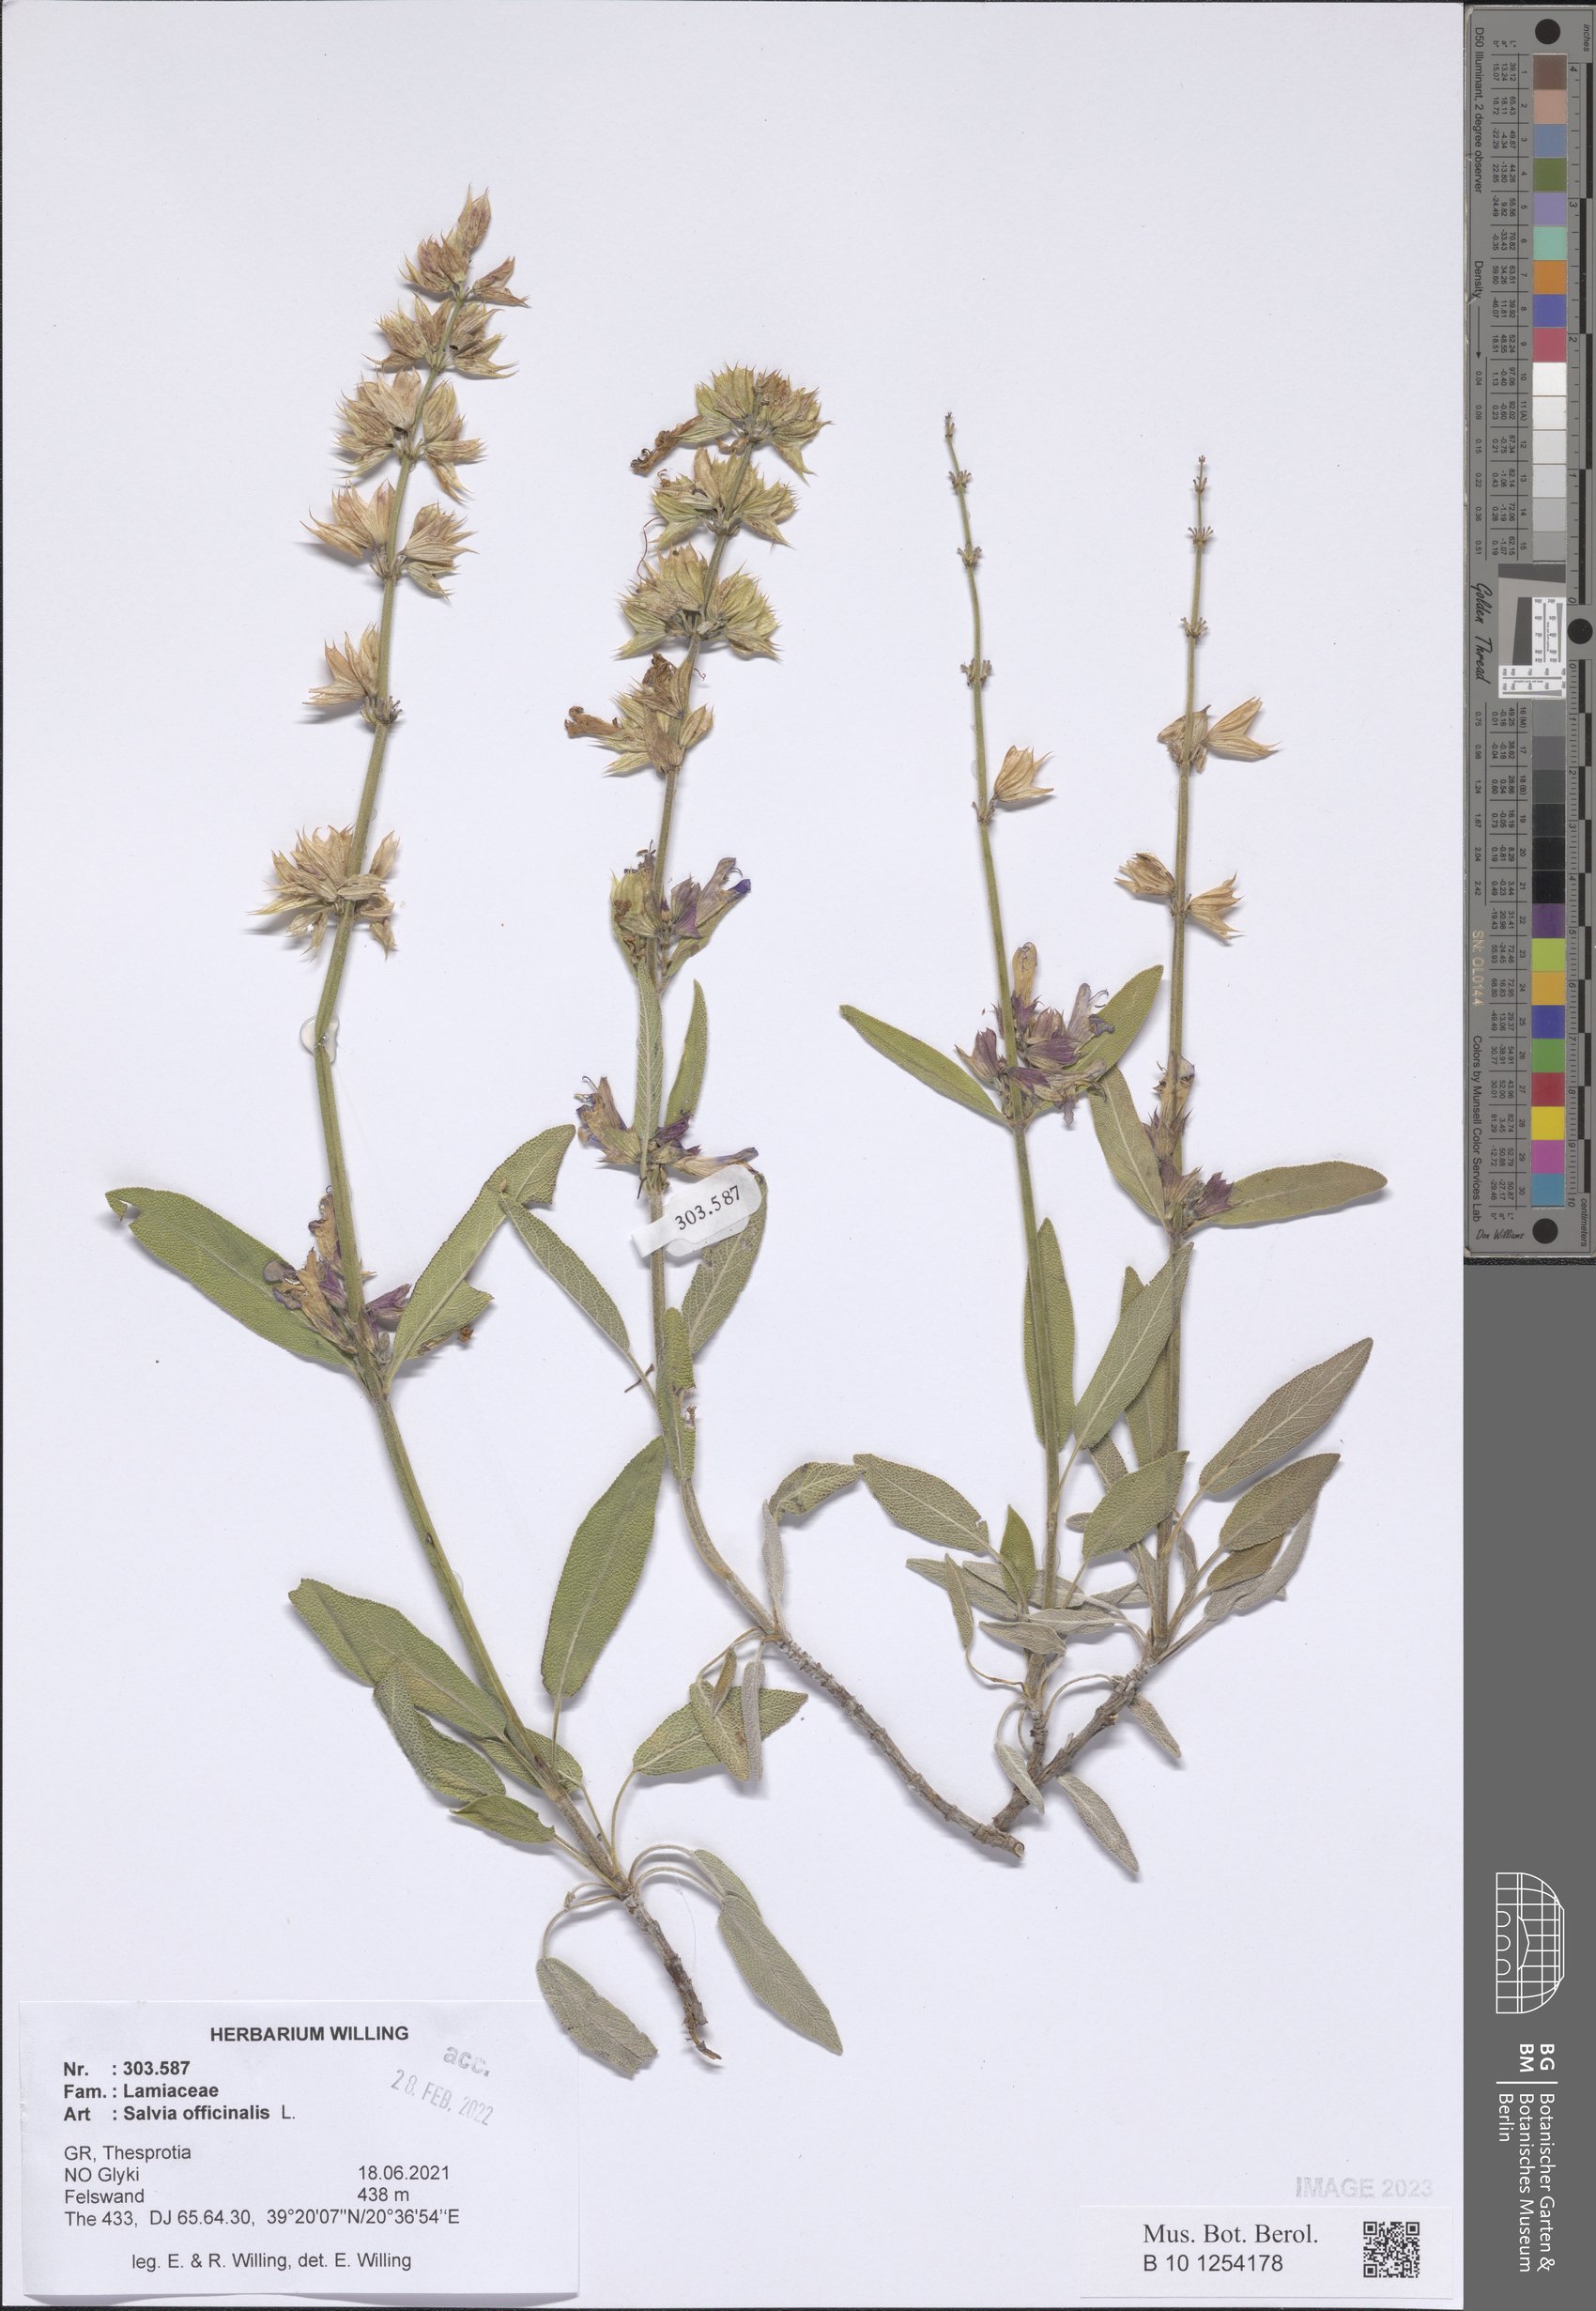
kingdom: Plantae
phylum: Tracheophyta
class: Magnoliopsida
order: Lamiales
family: Lamiaceae
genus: Salvia
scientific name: Salvia officinalis
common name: Sage
